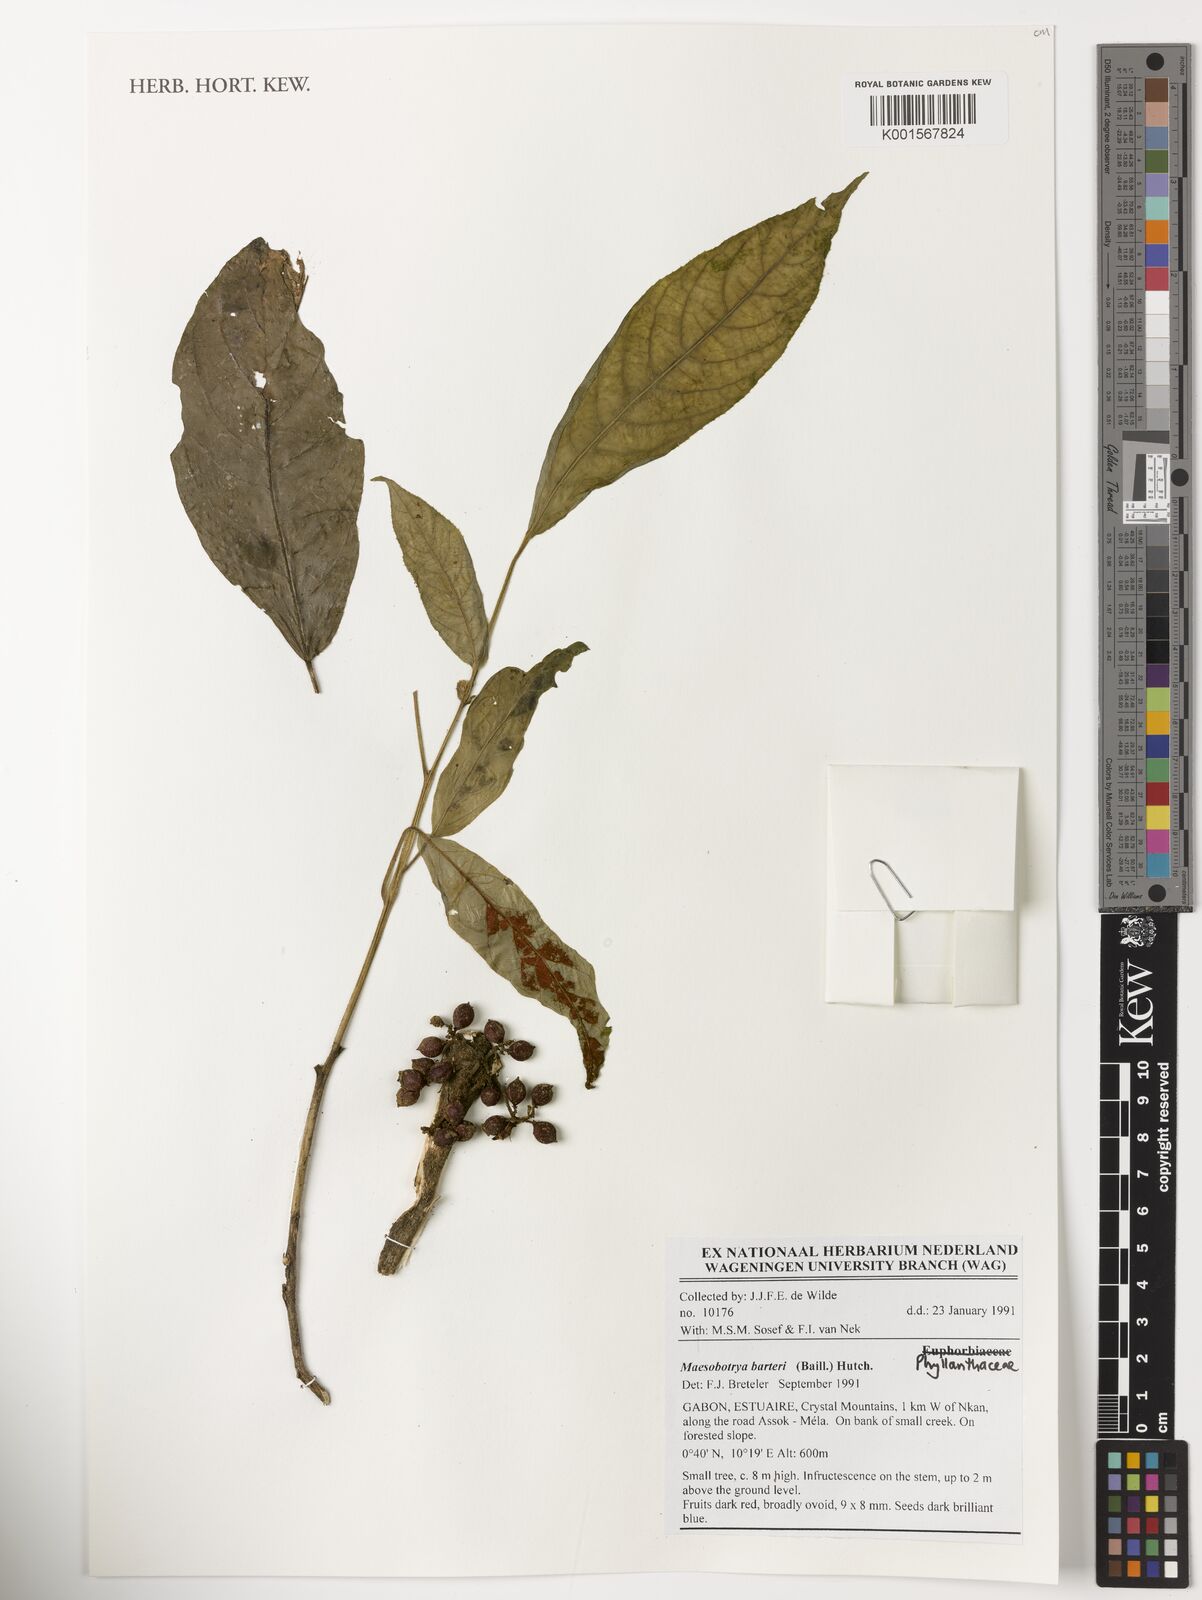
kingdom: Plantae
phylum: Tracheophyta
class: Magnoliopsida
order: Malpighiales
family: Phyllanthaceae
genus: Maesobotrya
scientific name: Maesobotrya barteri
